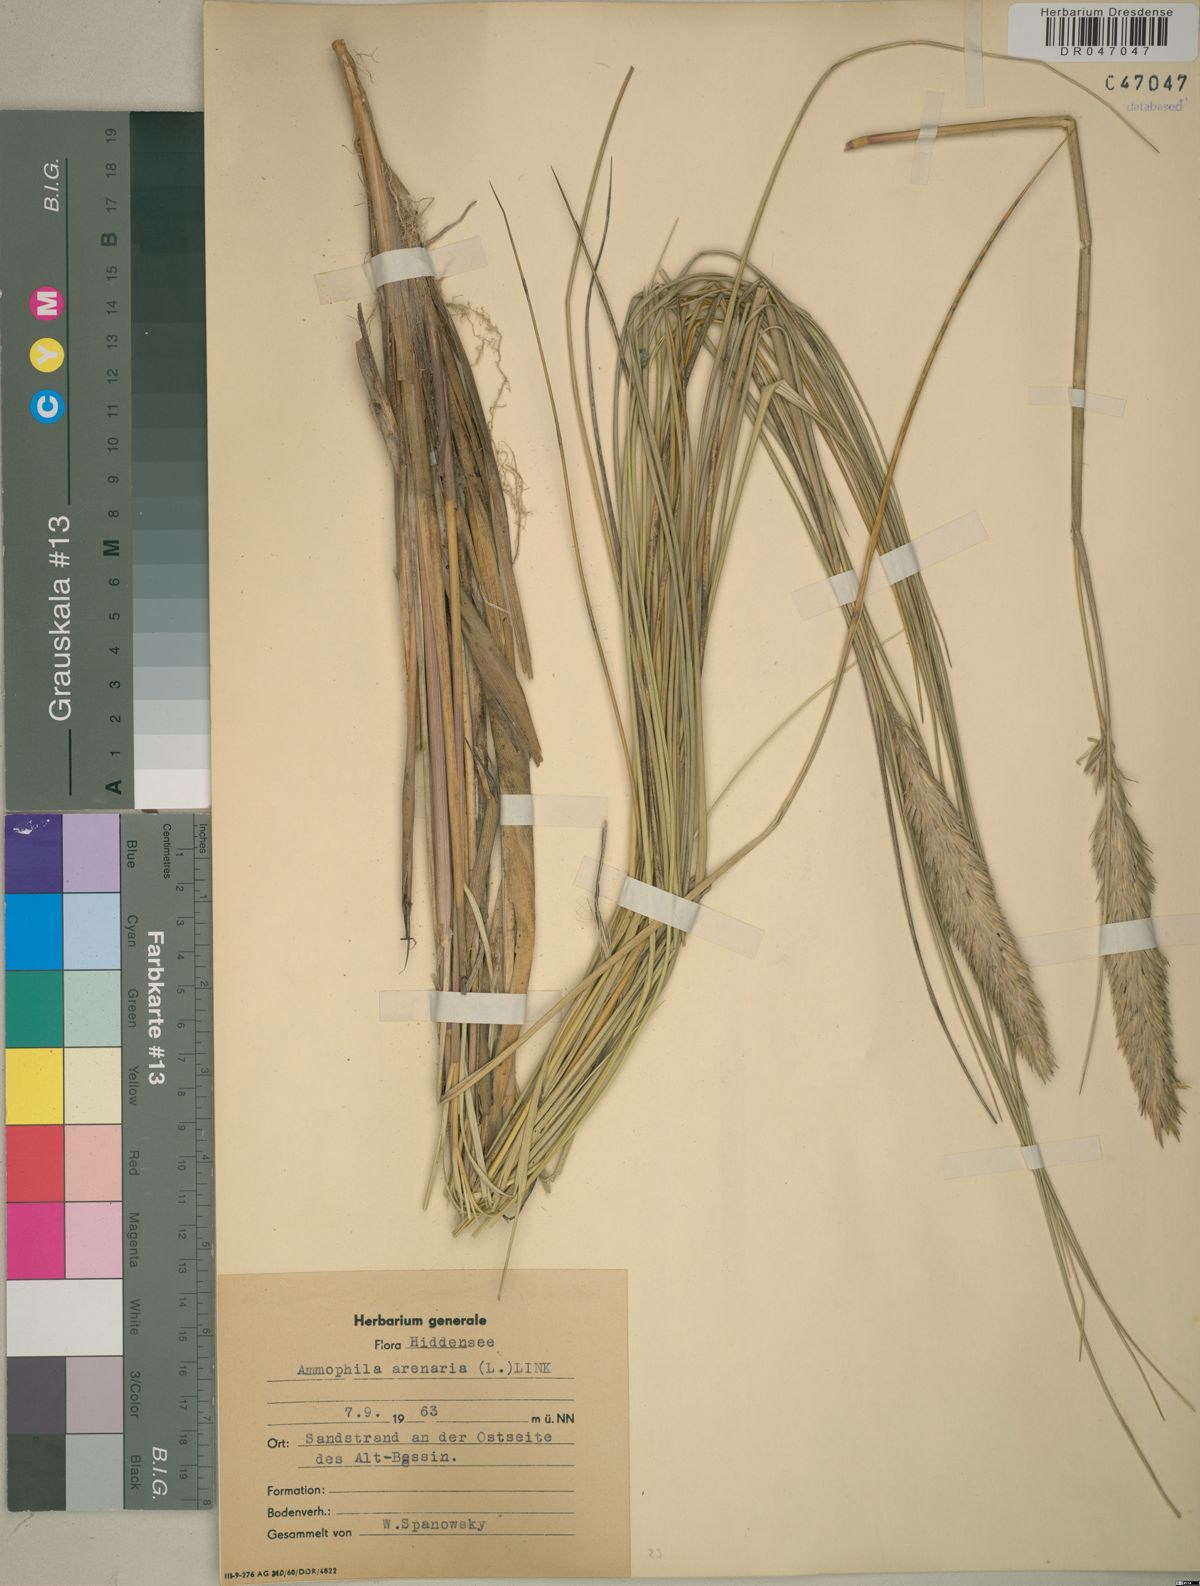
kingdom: Plantae
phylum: Tracheophyta
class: Liliopsida
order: Poales
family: Poaceae
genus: Calamagrostis
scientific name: Calamagrostis arenaria
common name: European beachgrass
